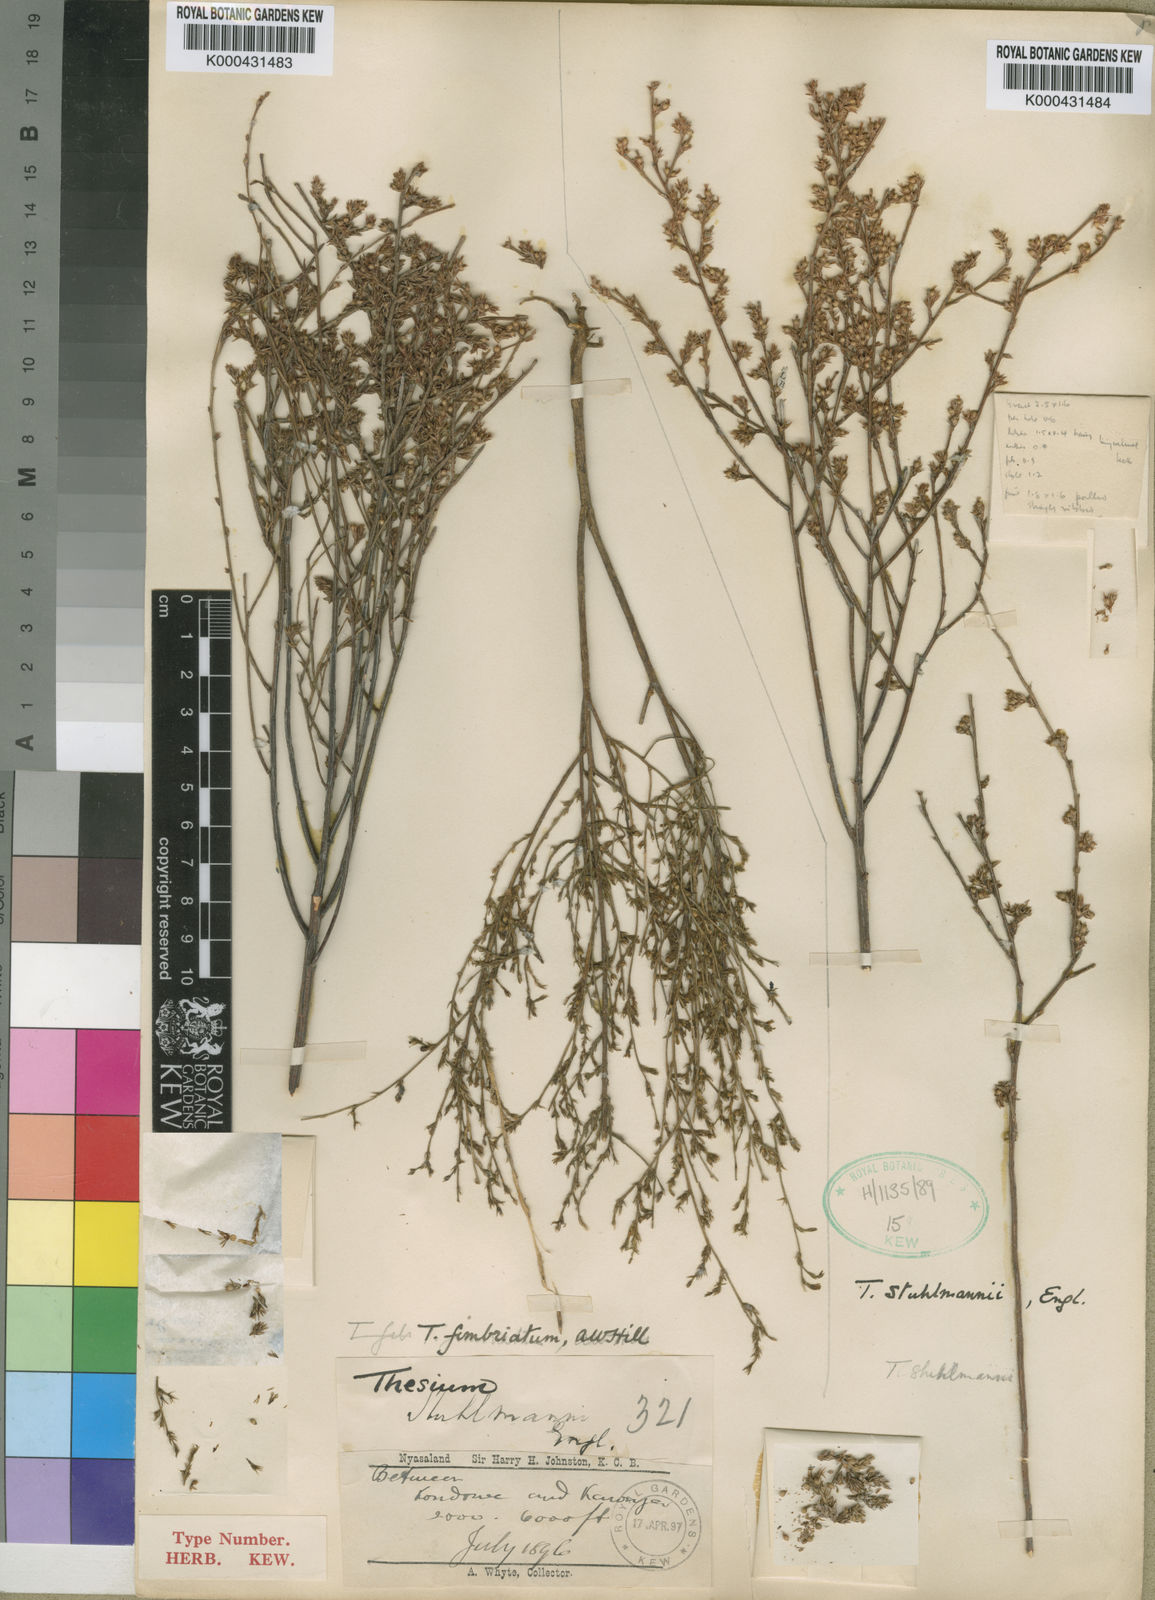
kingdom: Plantae
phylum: Tracheophyta
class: Magnoliopsida
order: Santalales
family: Thesiaceae
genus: Thesium
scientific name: Thesium fimbriatum
